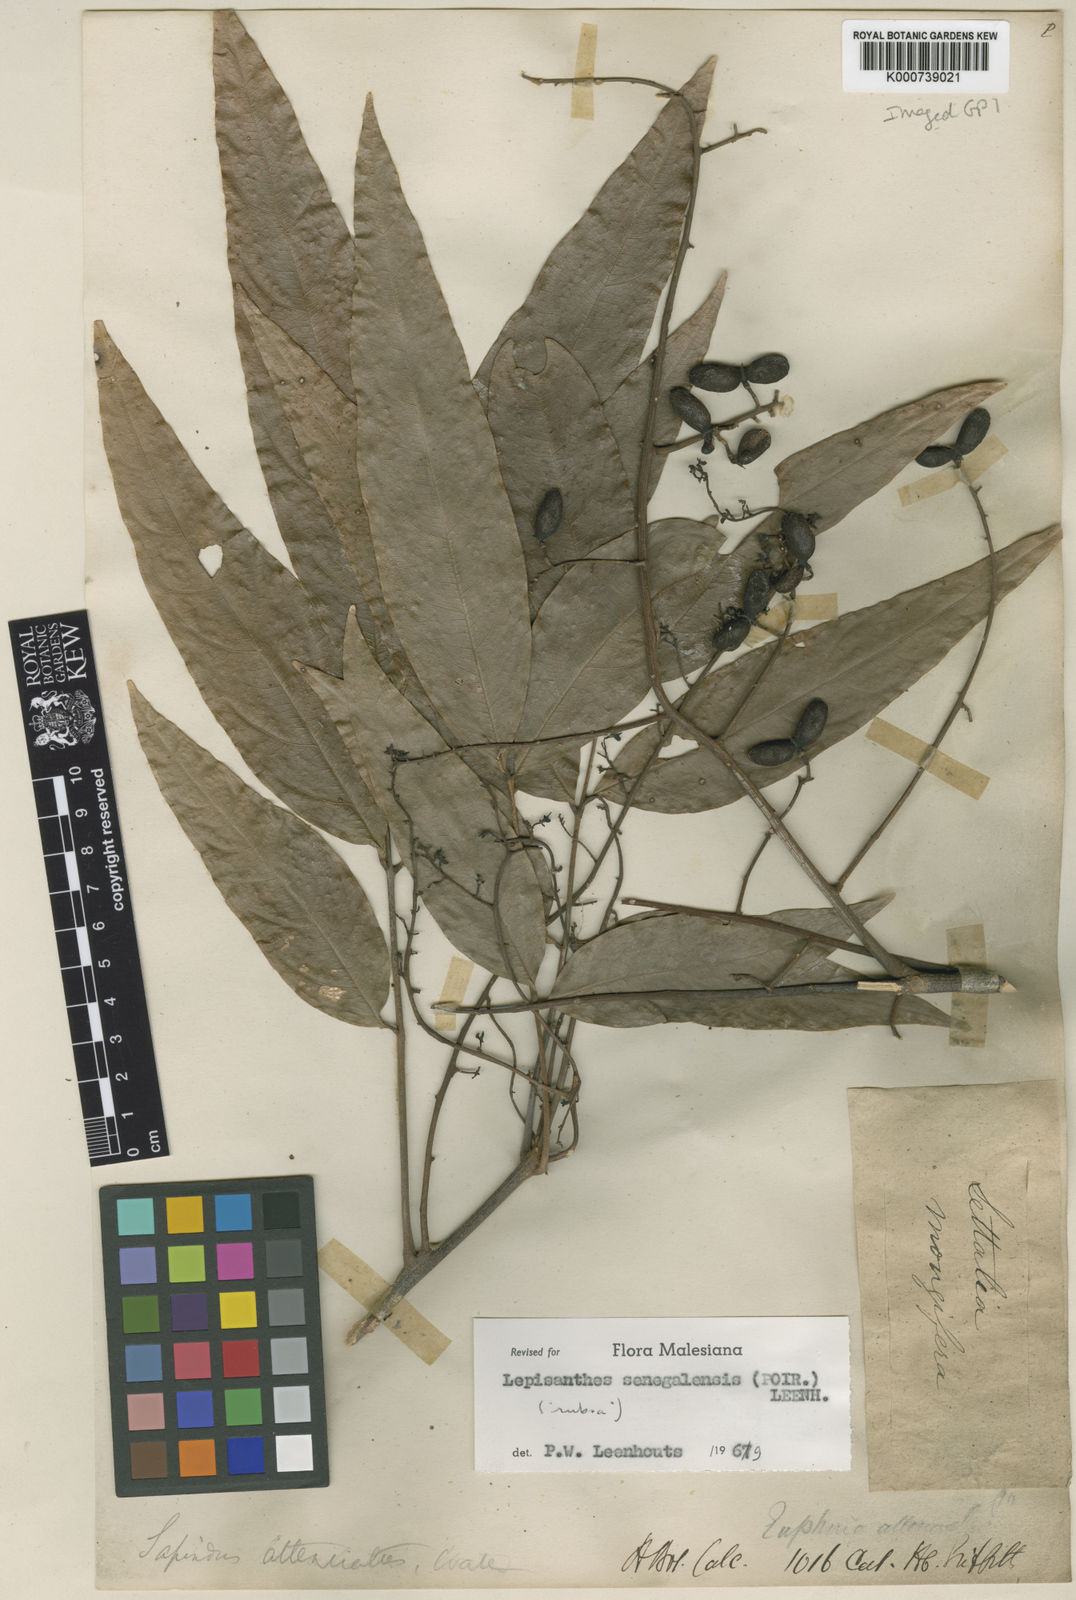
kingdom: Plantae
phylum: Tracheophyta
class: Magnoliopsida
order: Sapindales
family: Sapindaceae
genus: Lepisanthes
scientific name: Lepisanthes senegalensis
